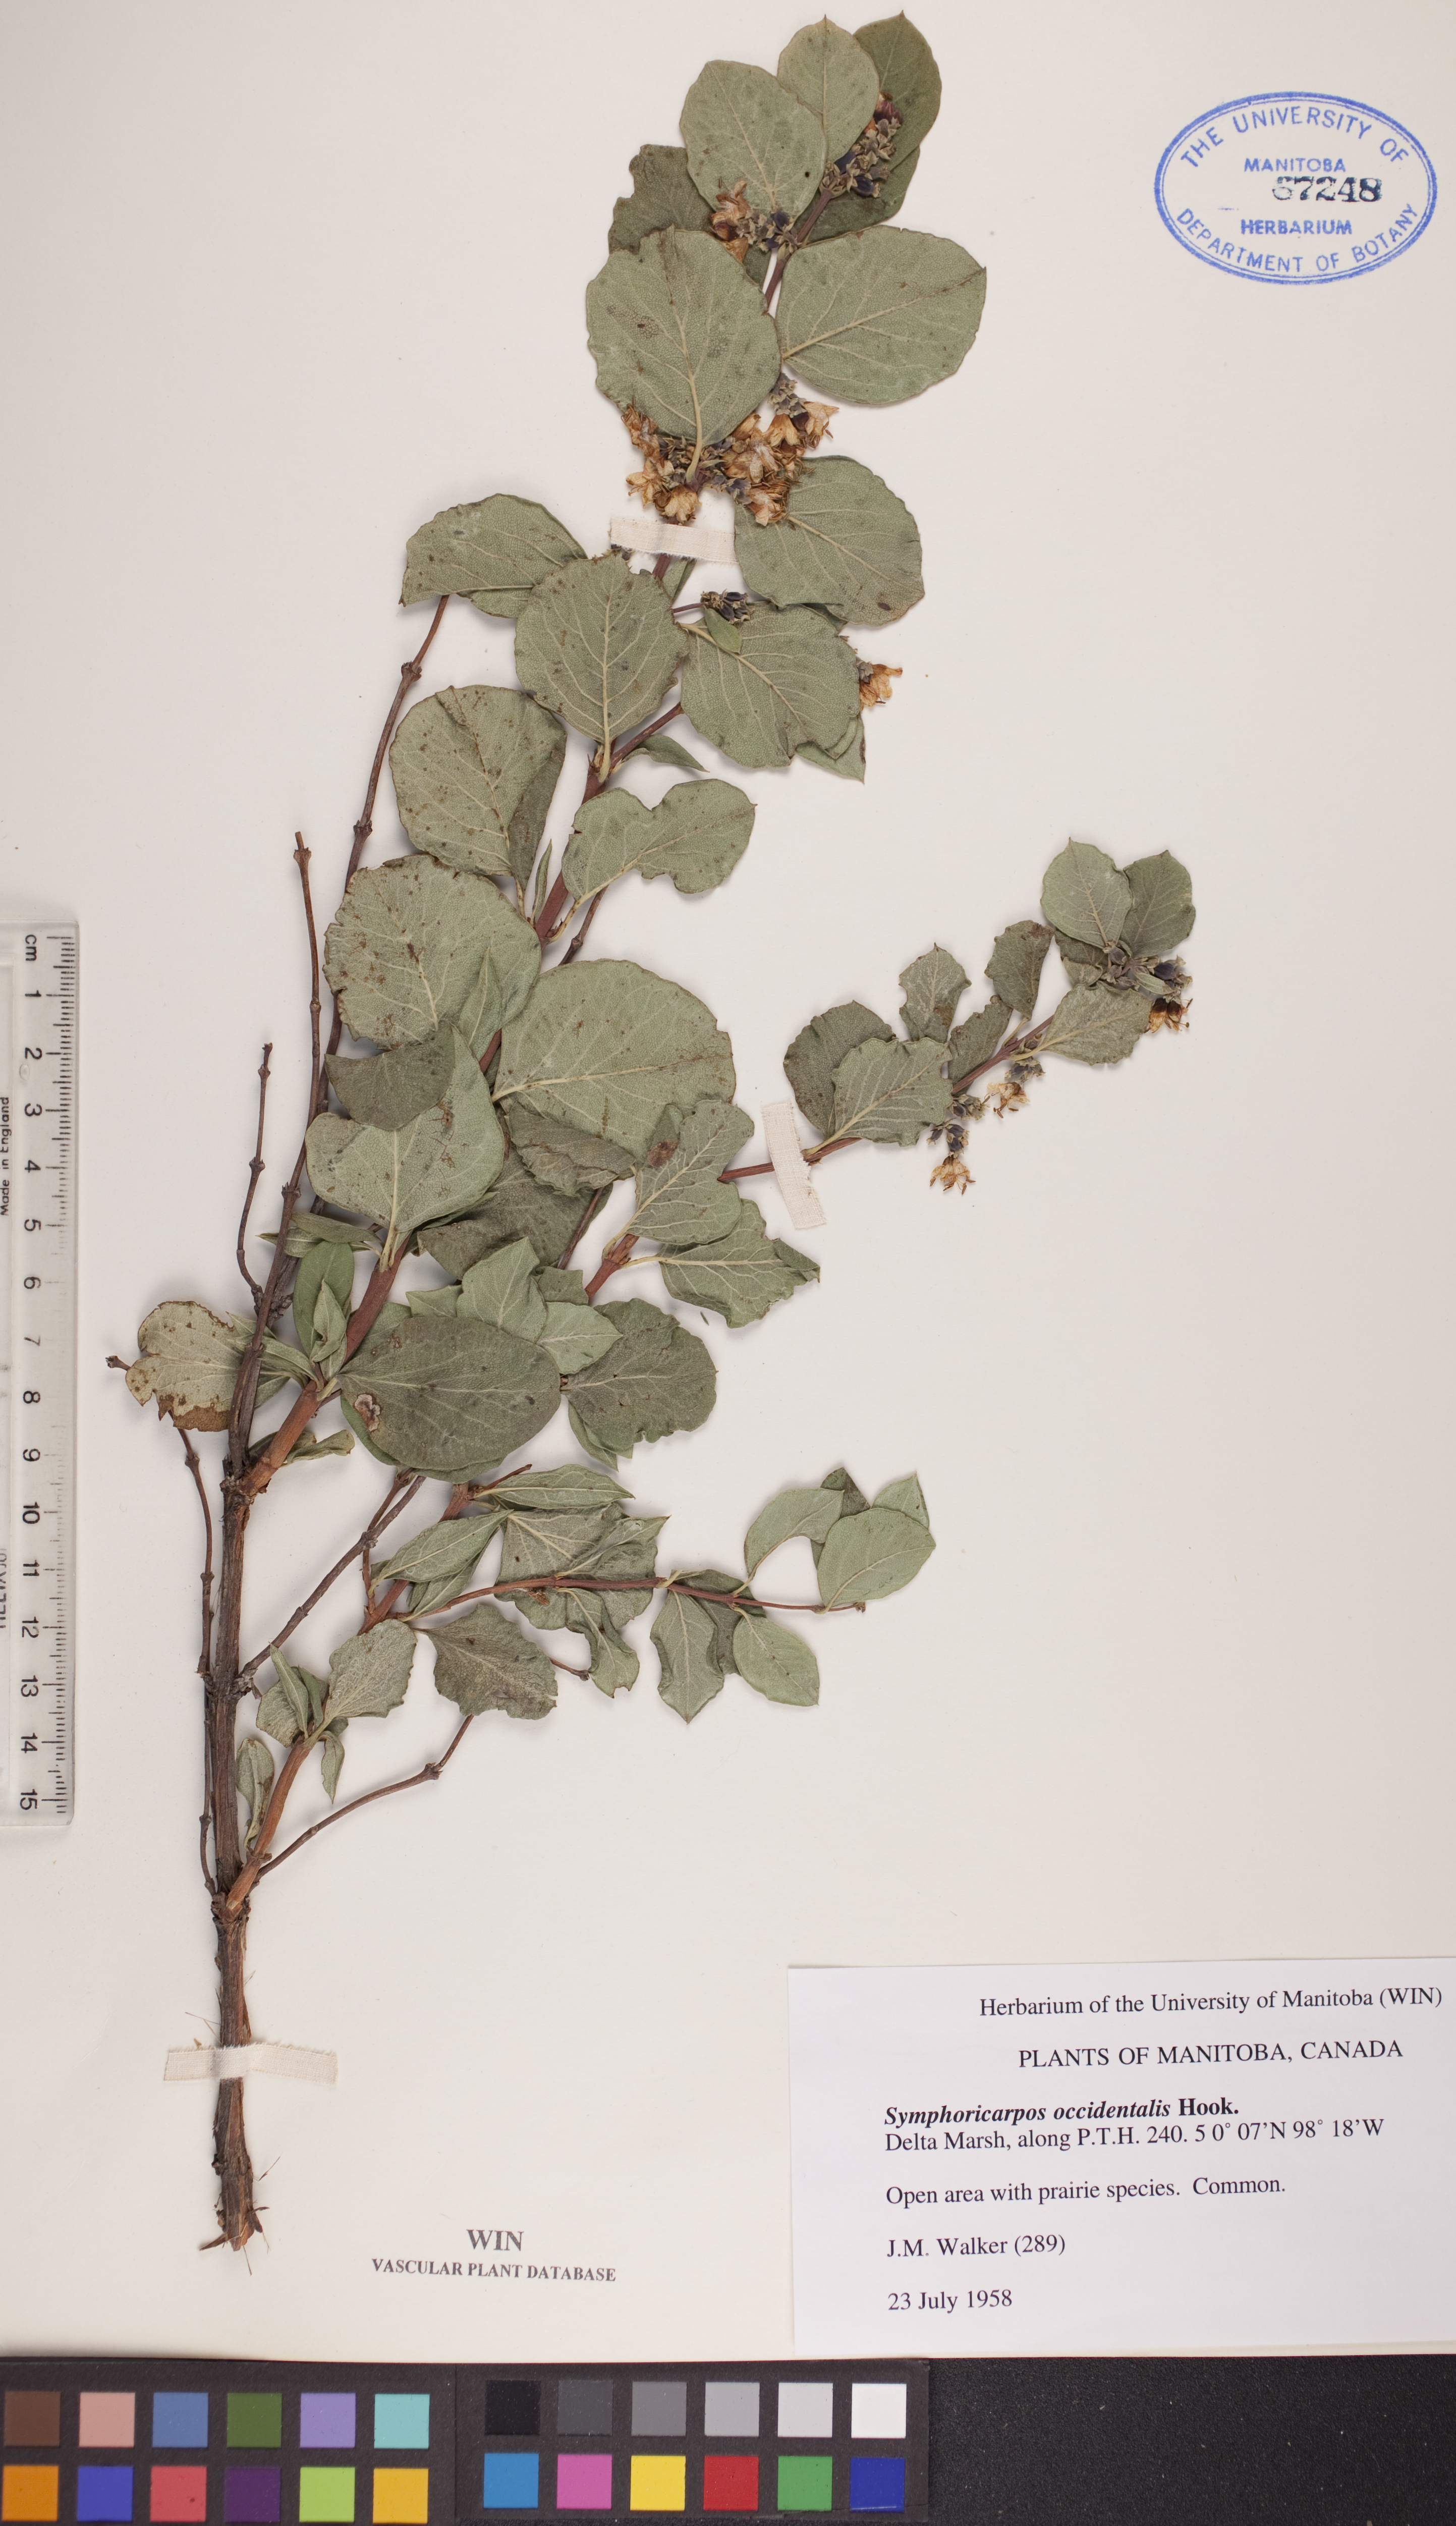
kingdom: Plantae
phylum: Tracheophyta
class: Magnoliopsida
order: Dipsacales
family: Caprifoliaceae
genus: Symphoricarpos
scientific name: Symphoricarpos occidentalis
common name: Wolfberry
